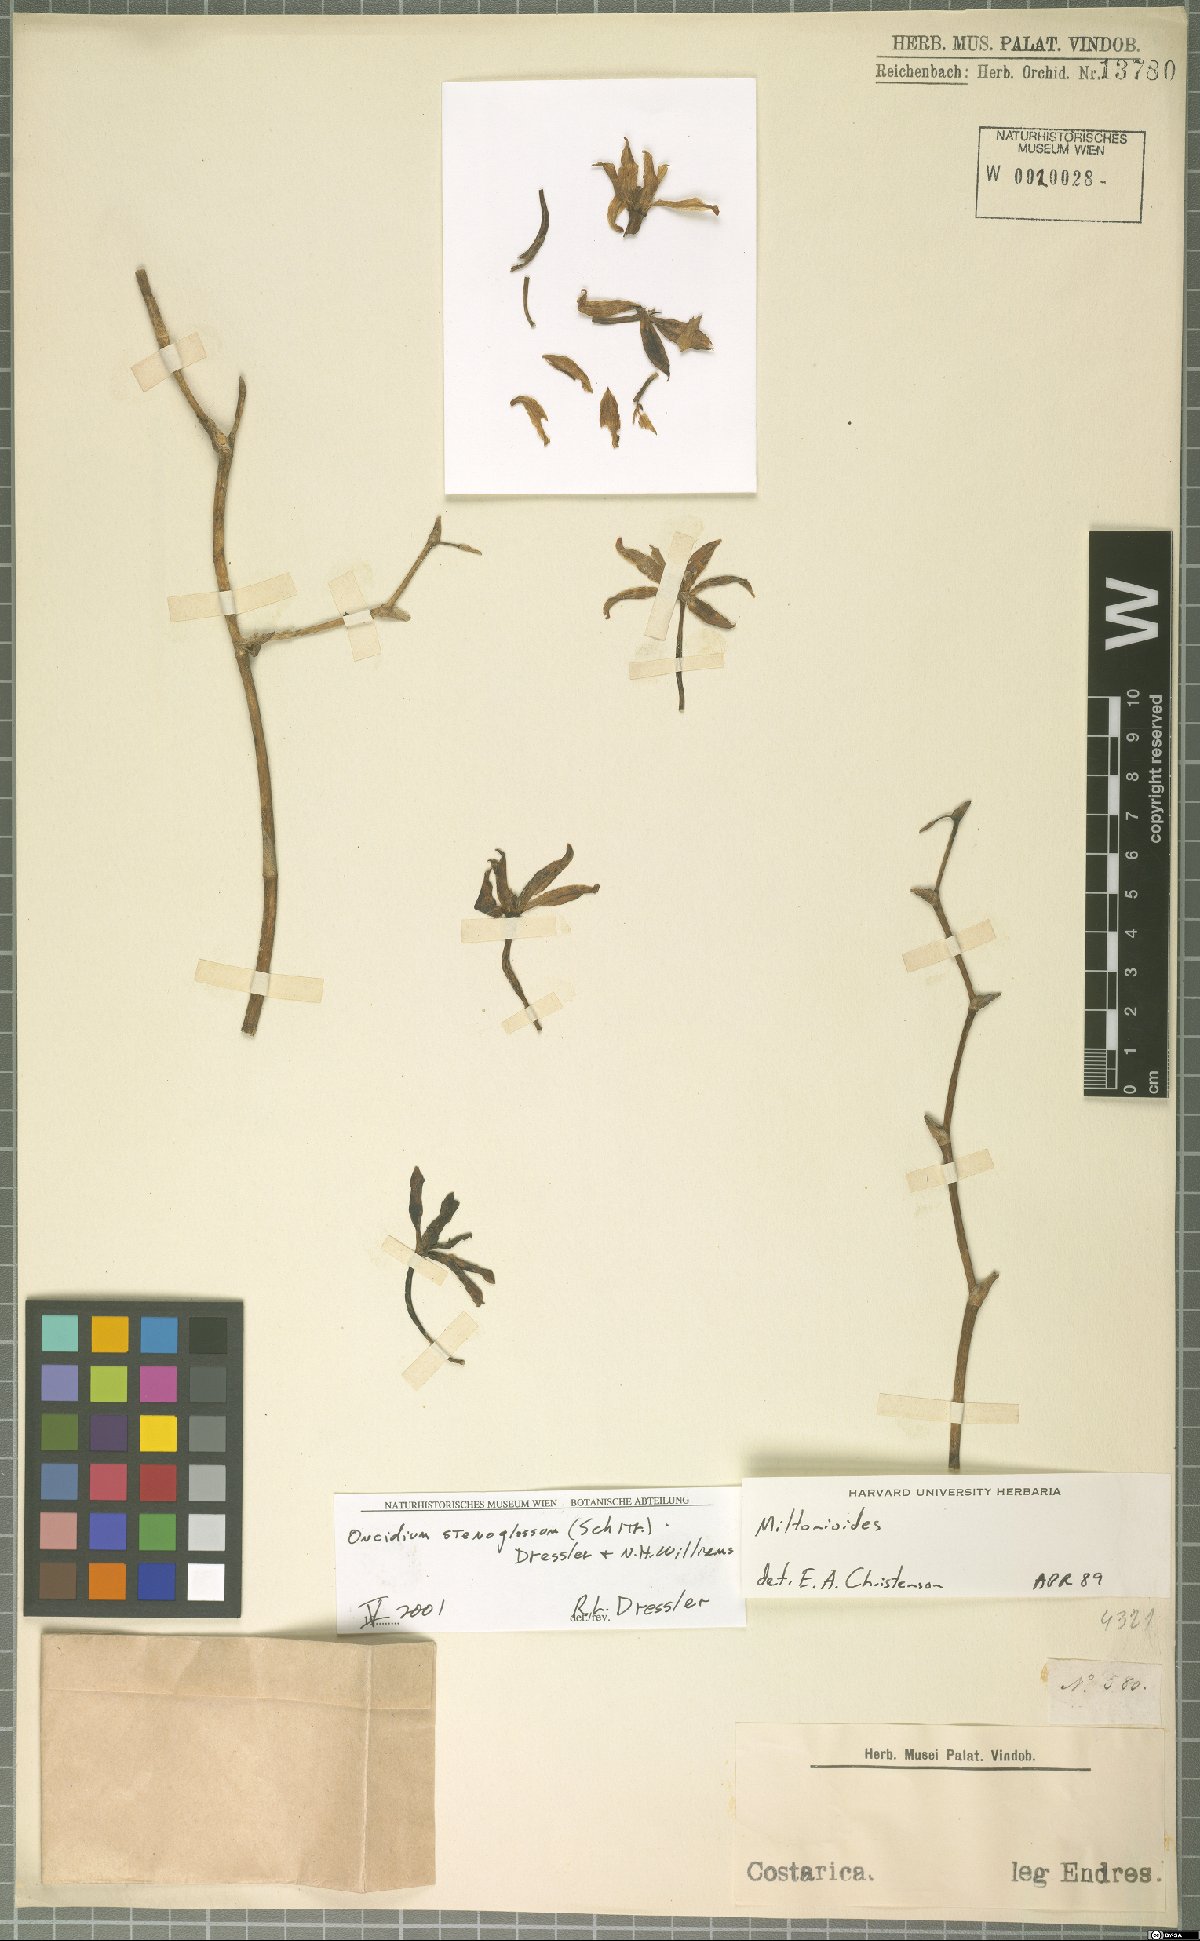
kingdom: Plantae
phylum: Tracheophyta
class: Liliopsida
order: Asparagales
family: Orchidaceae
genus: Oncidium
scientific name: Oncidium stenoglossum
